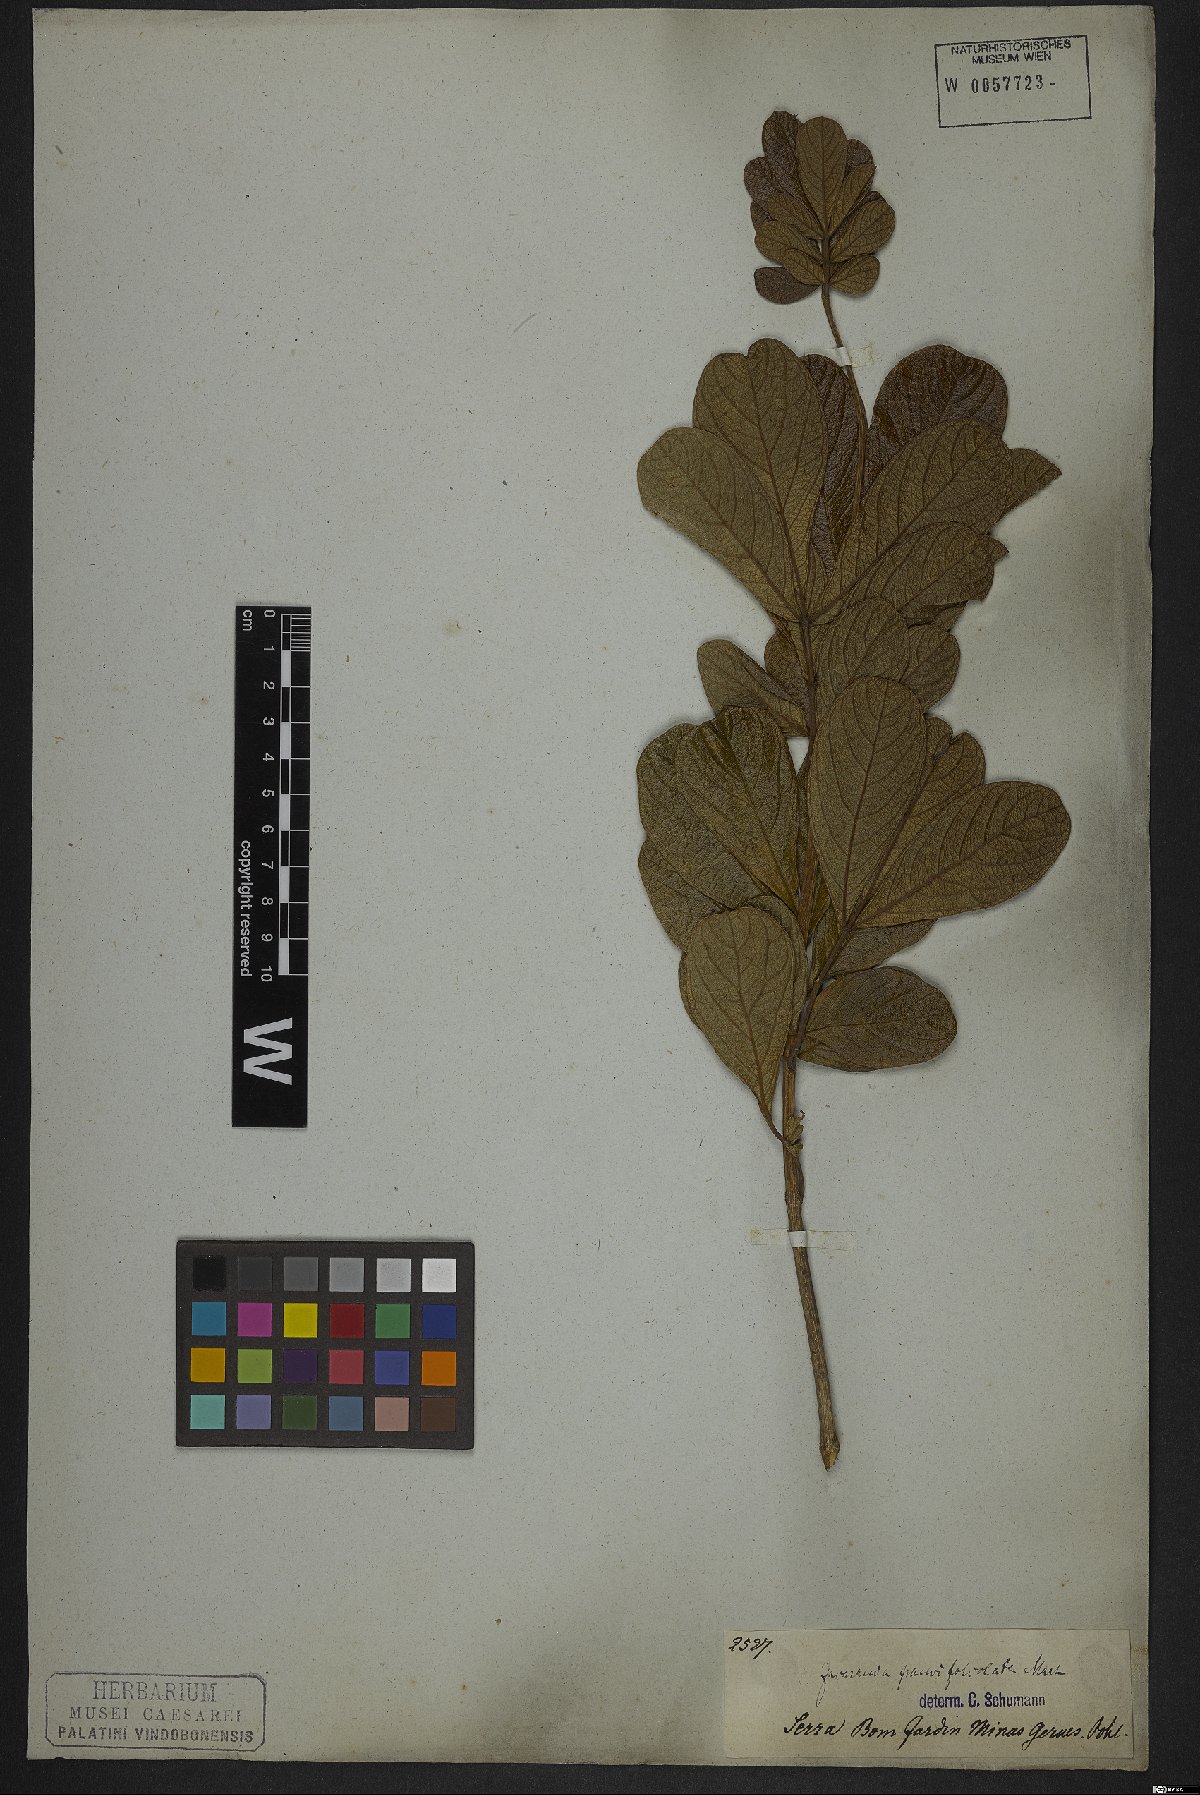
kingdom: Plantae
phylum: Tracheophyta
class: Magnoliopsida
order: Lamiales
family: Bignoniaceae
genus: Jacaranda
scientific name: Jacaranda paucifoliolata
